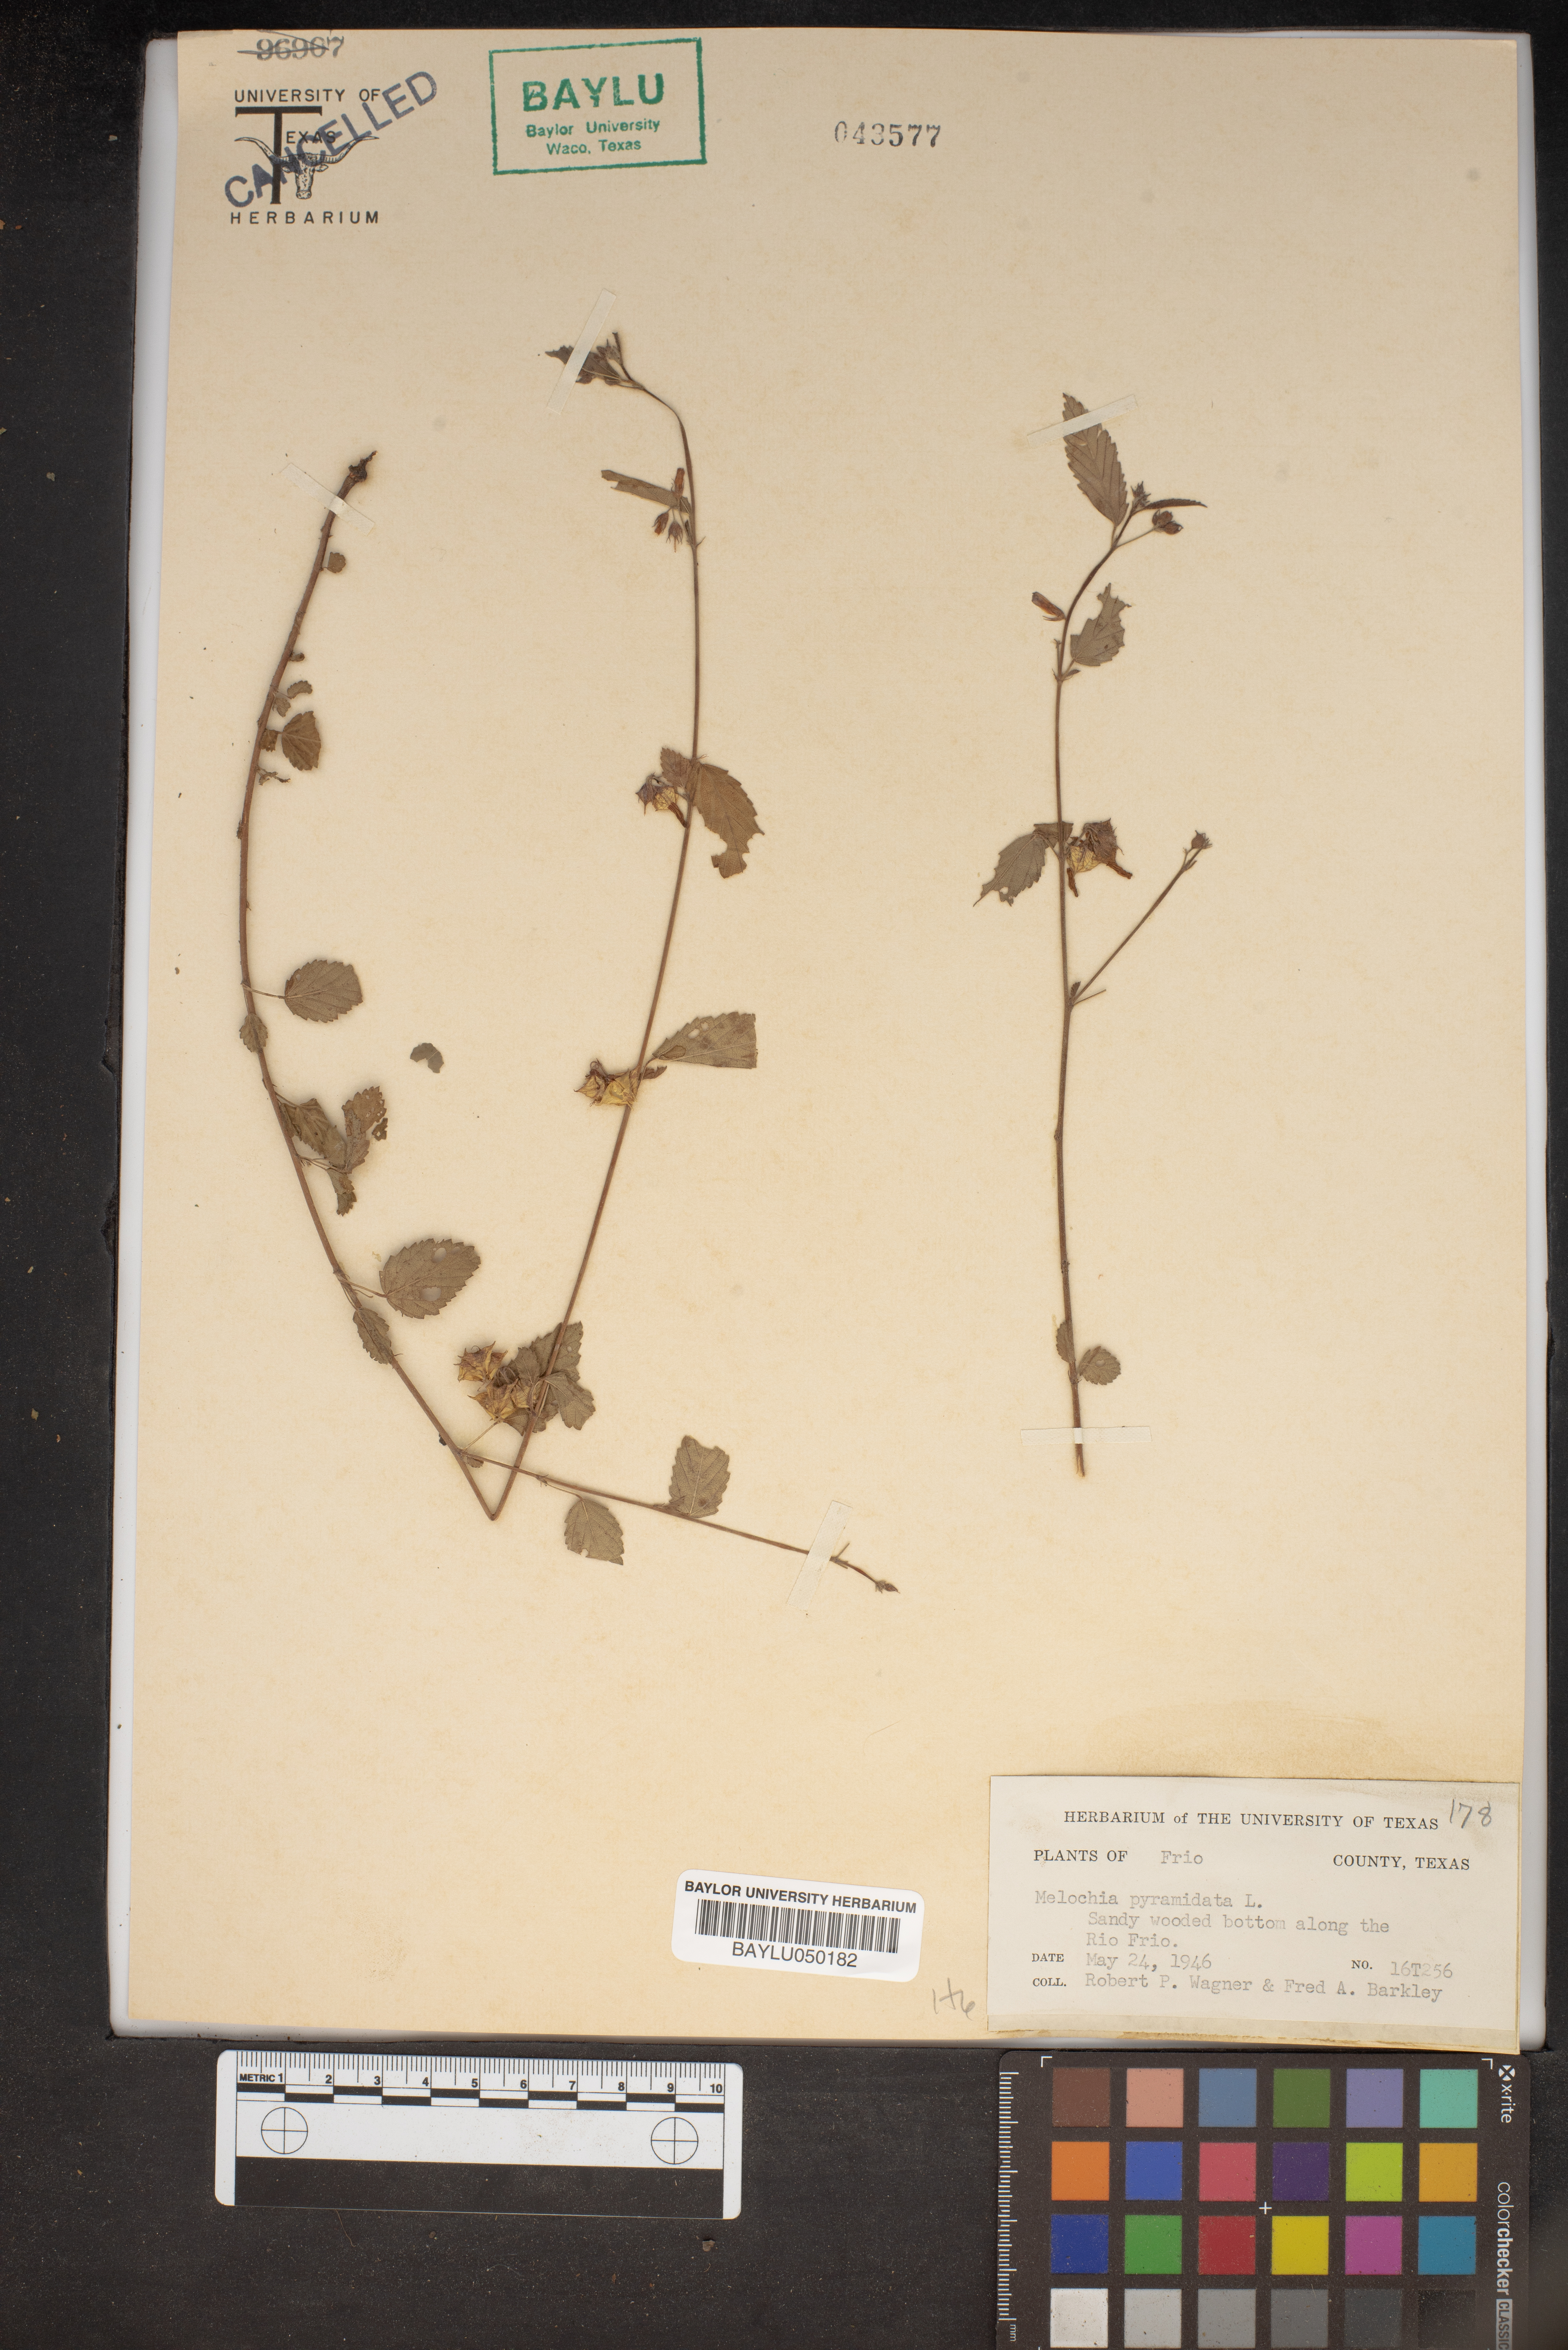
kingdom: Plantae
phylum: Tracheophyta
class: Magnoliopsida
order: Malvales
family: Malvaceae
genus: Melochia
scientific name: Melochia pyramidata
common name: Pyramidflower
